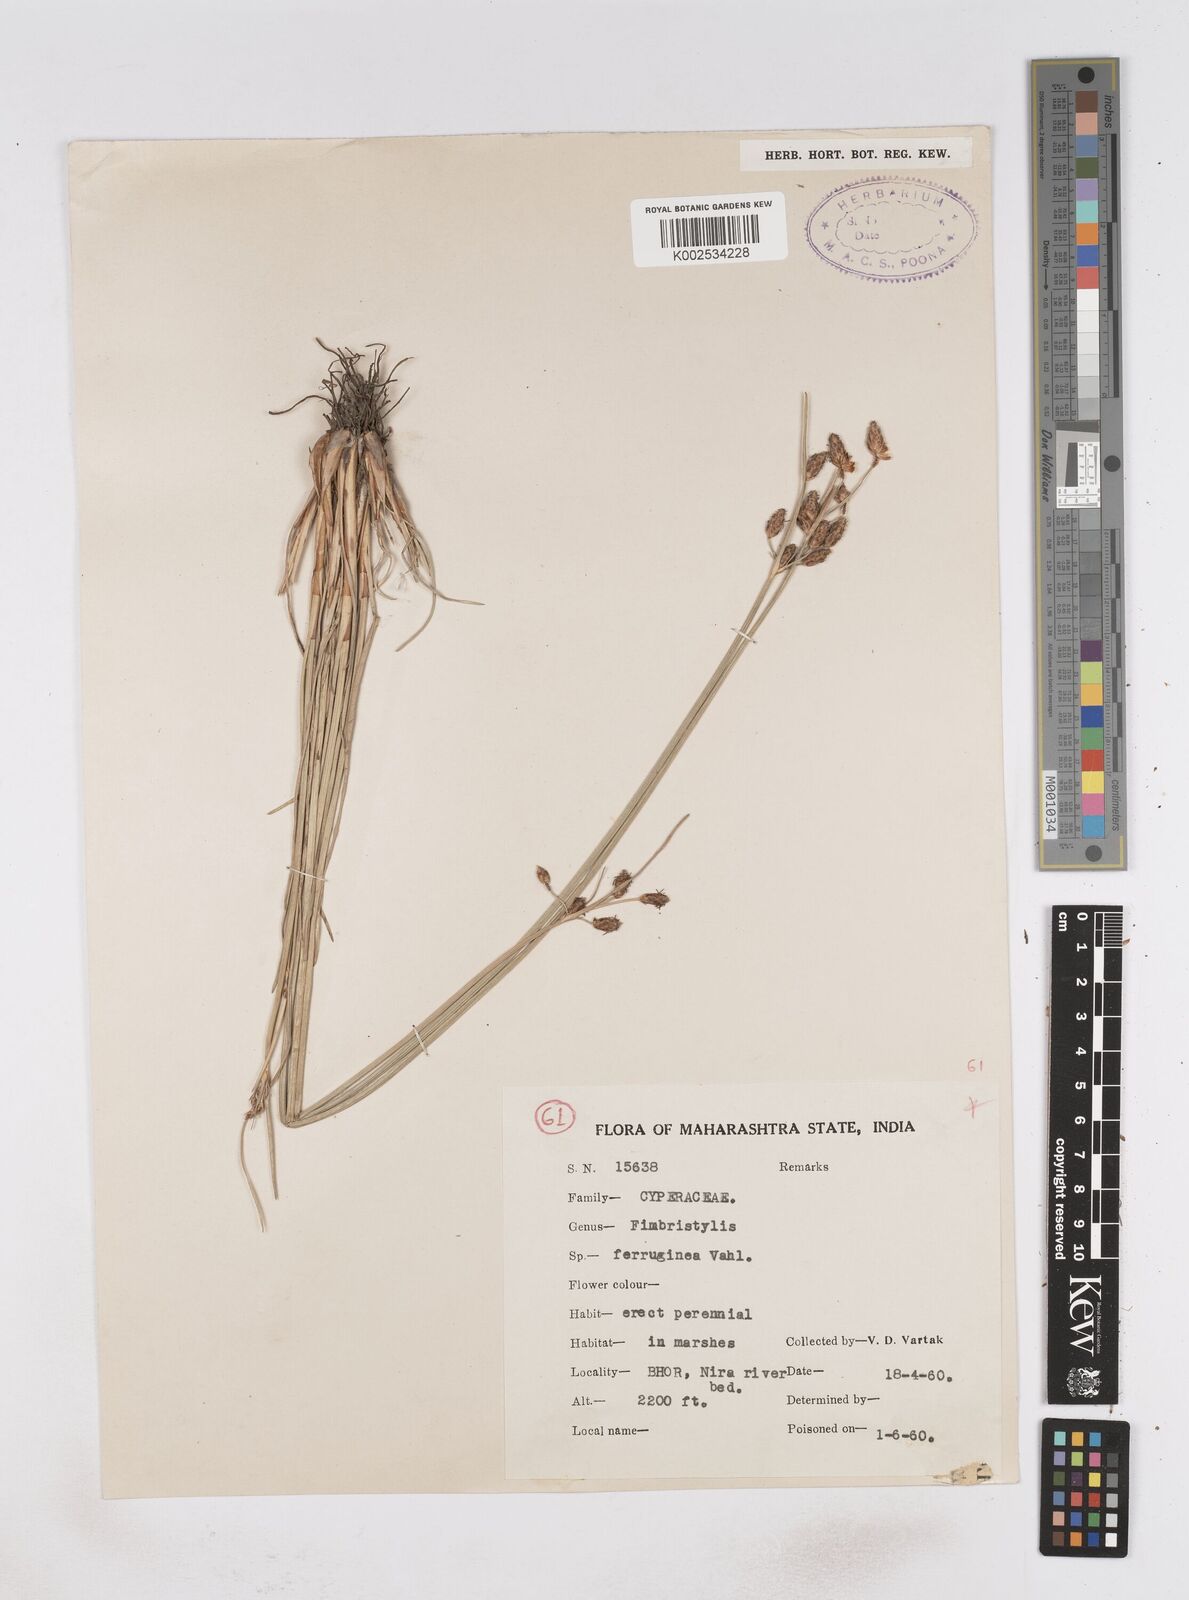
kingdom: Plantae
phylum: Tracheophyta
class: Liliopsida
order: Poales
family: Cyperaceae
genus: Fimbristylis
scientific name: Fimbristylis ferruginea
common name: West indian fimbry
